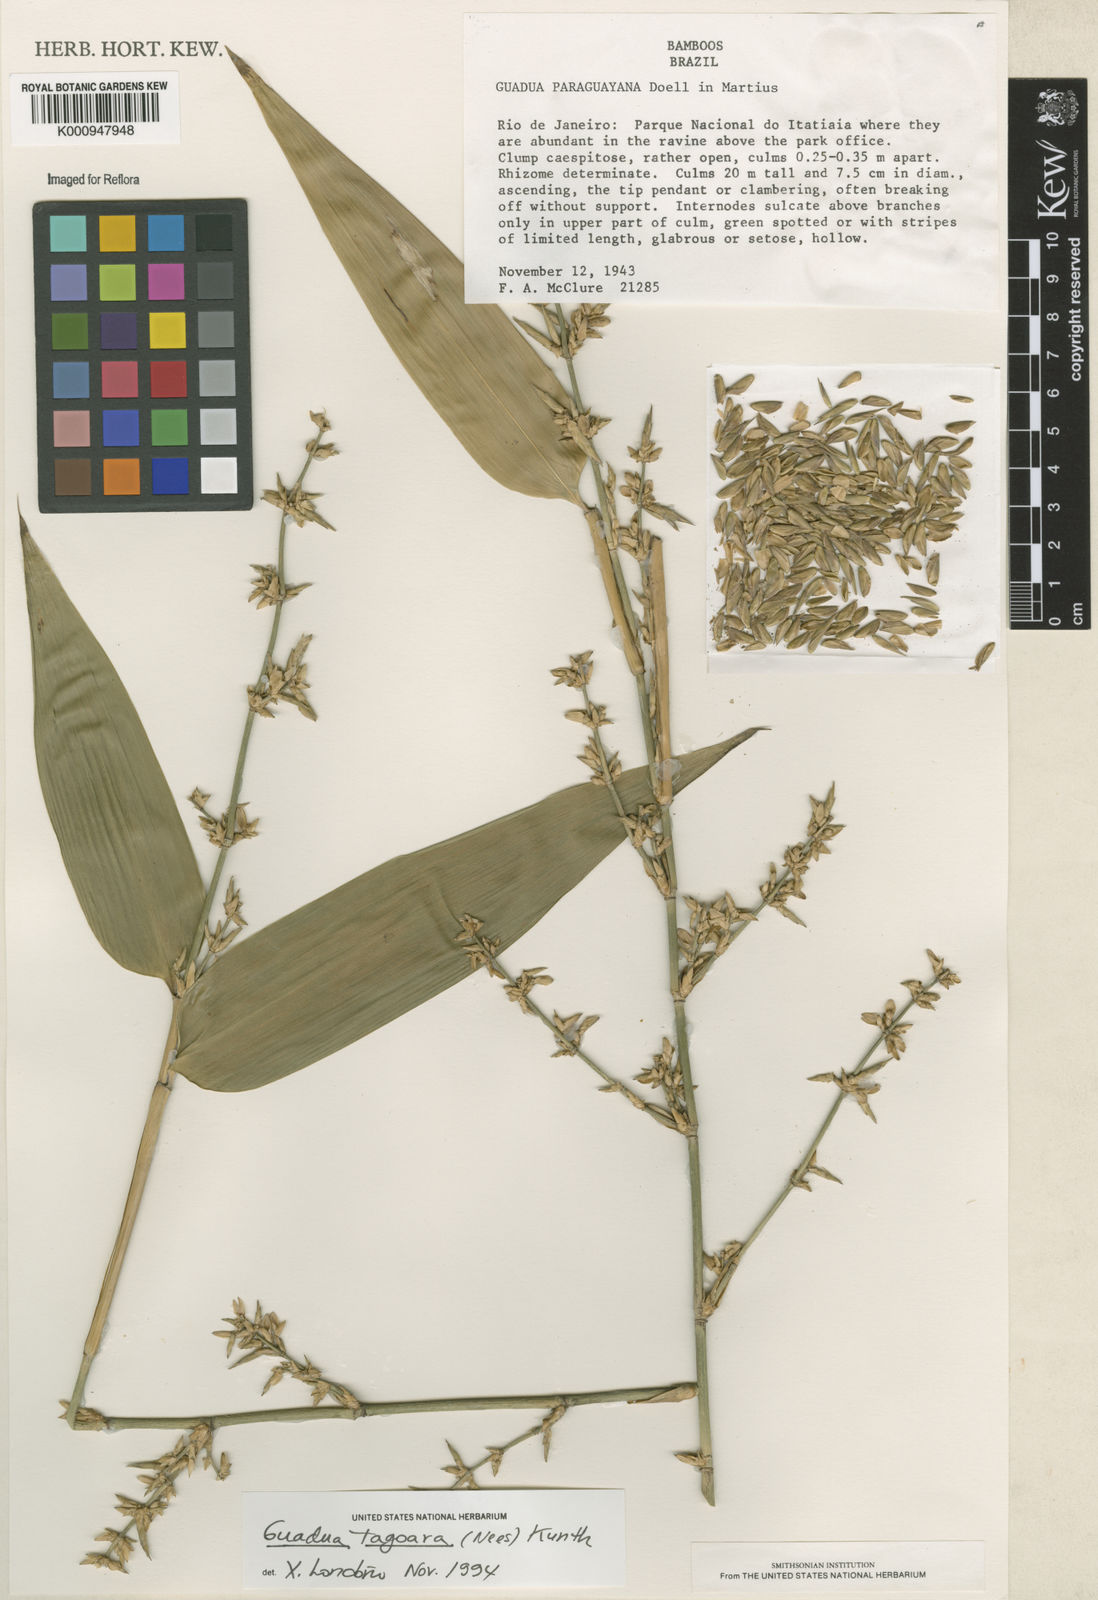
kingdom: Plantae
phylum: Tracheophyta
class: Liliopsida
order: Poales
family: Poaceae
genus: Guadua
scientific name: Guadua tagoara
